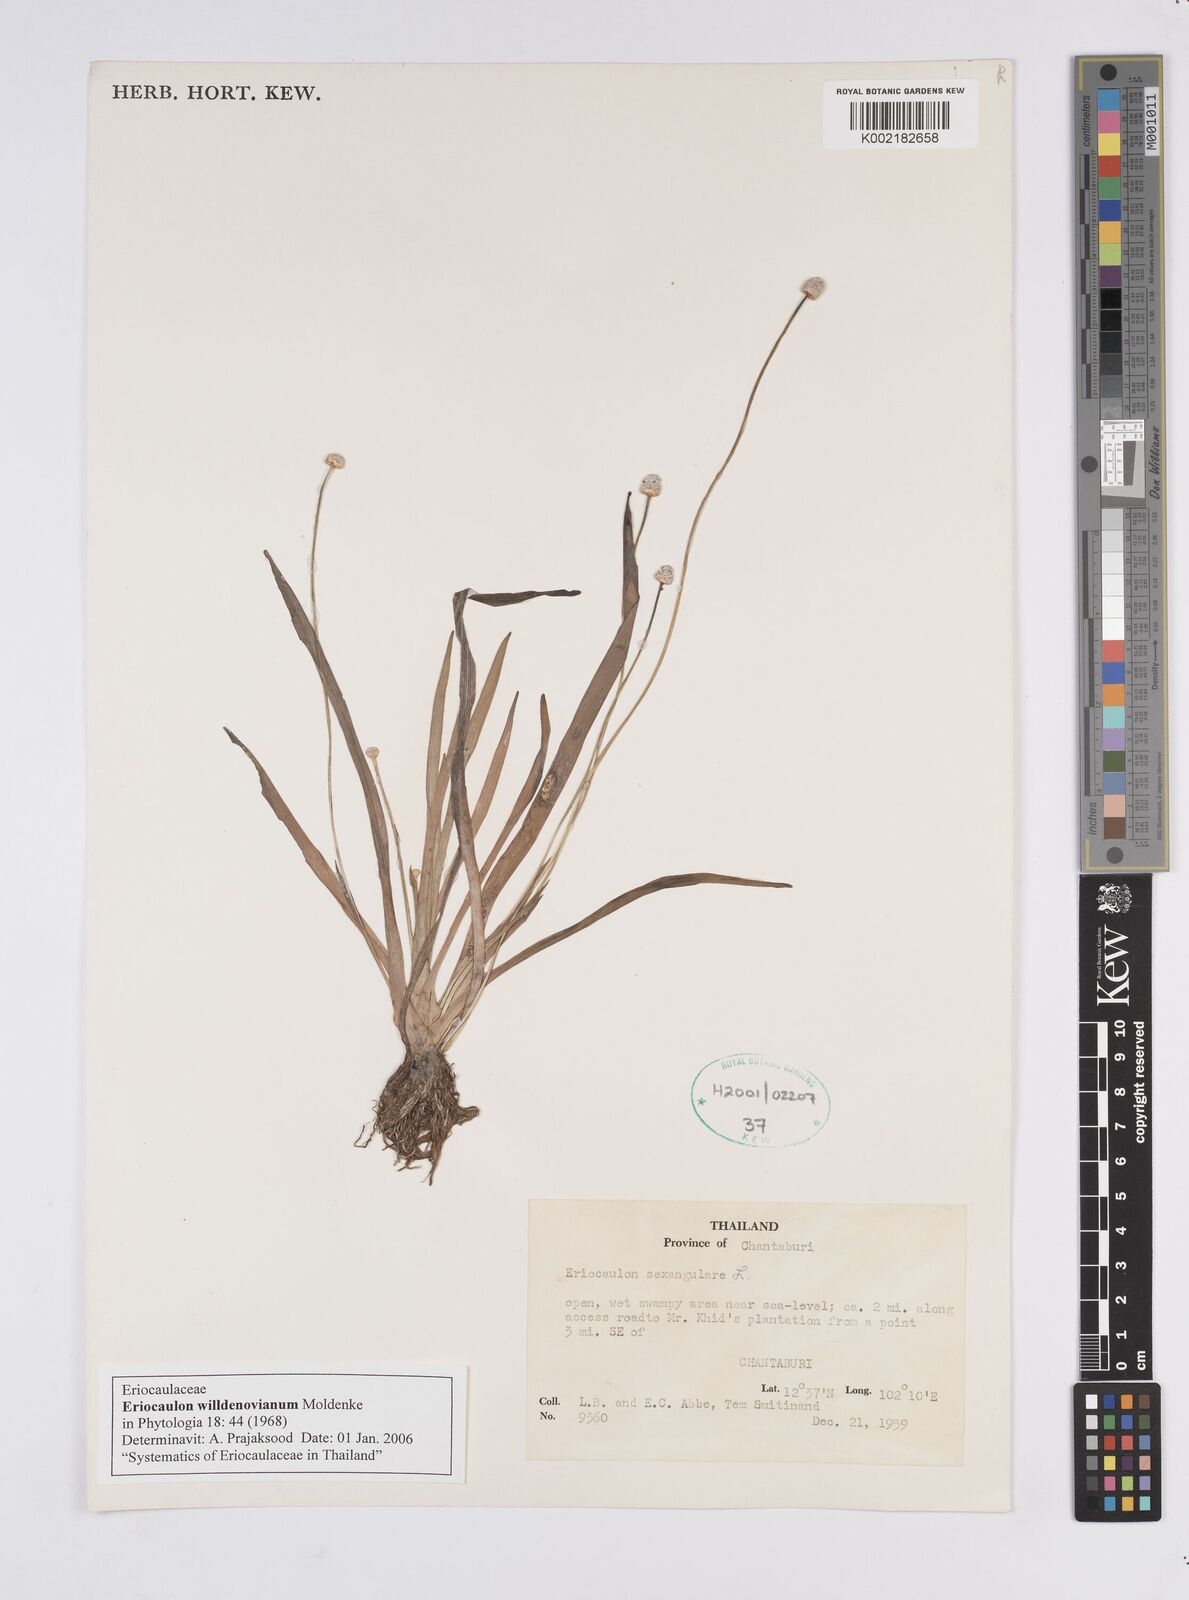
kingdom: Plantae
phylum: Tracheophyta
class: Liliopsida
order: Poales
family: Eriocaulaceae
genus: Eriocaulon
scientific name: Eriocaulon willdenovianum
